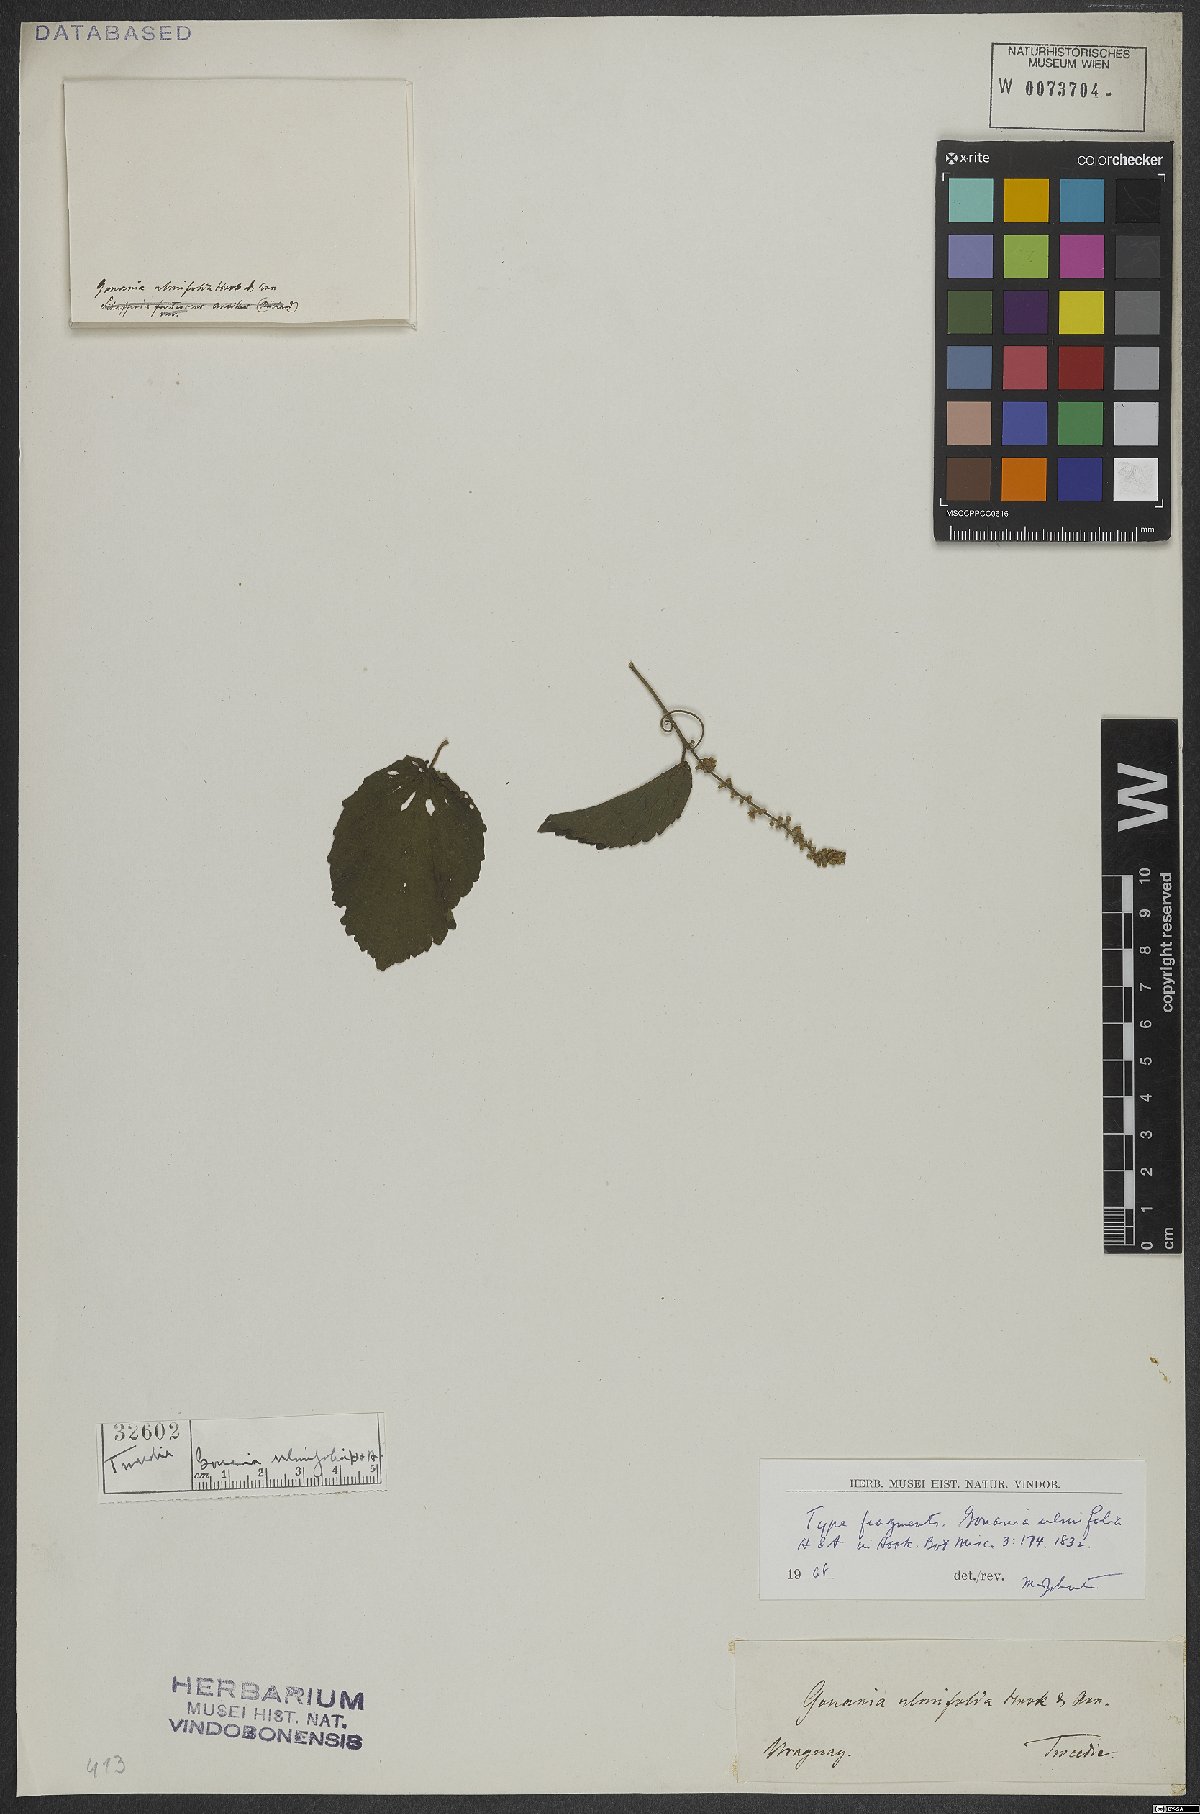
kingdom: Plantae
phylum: Tracheophyta
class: Magnoliopsida
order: Rosales
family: Rhamnaceae
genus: Gouania
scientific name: Gouania ulmifolia
